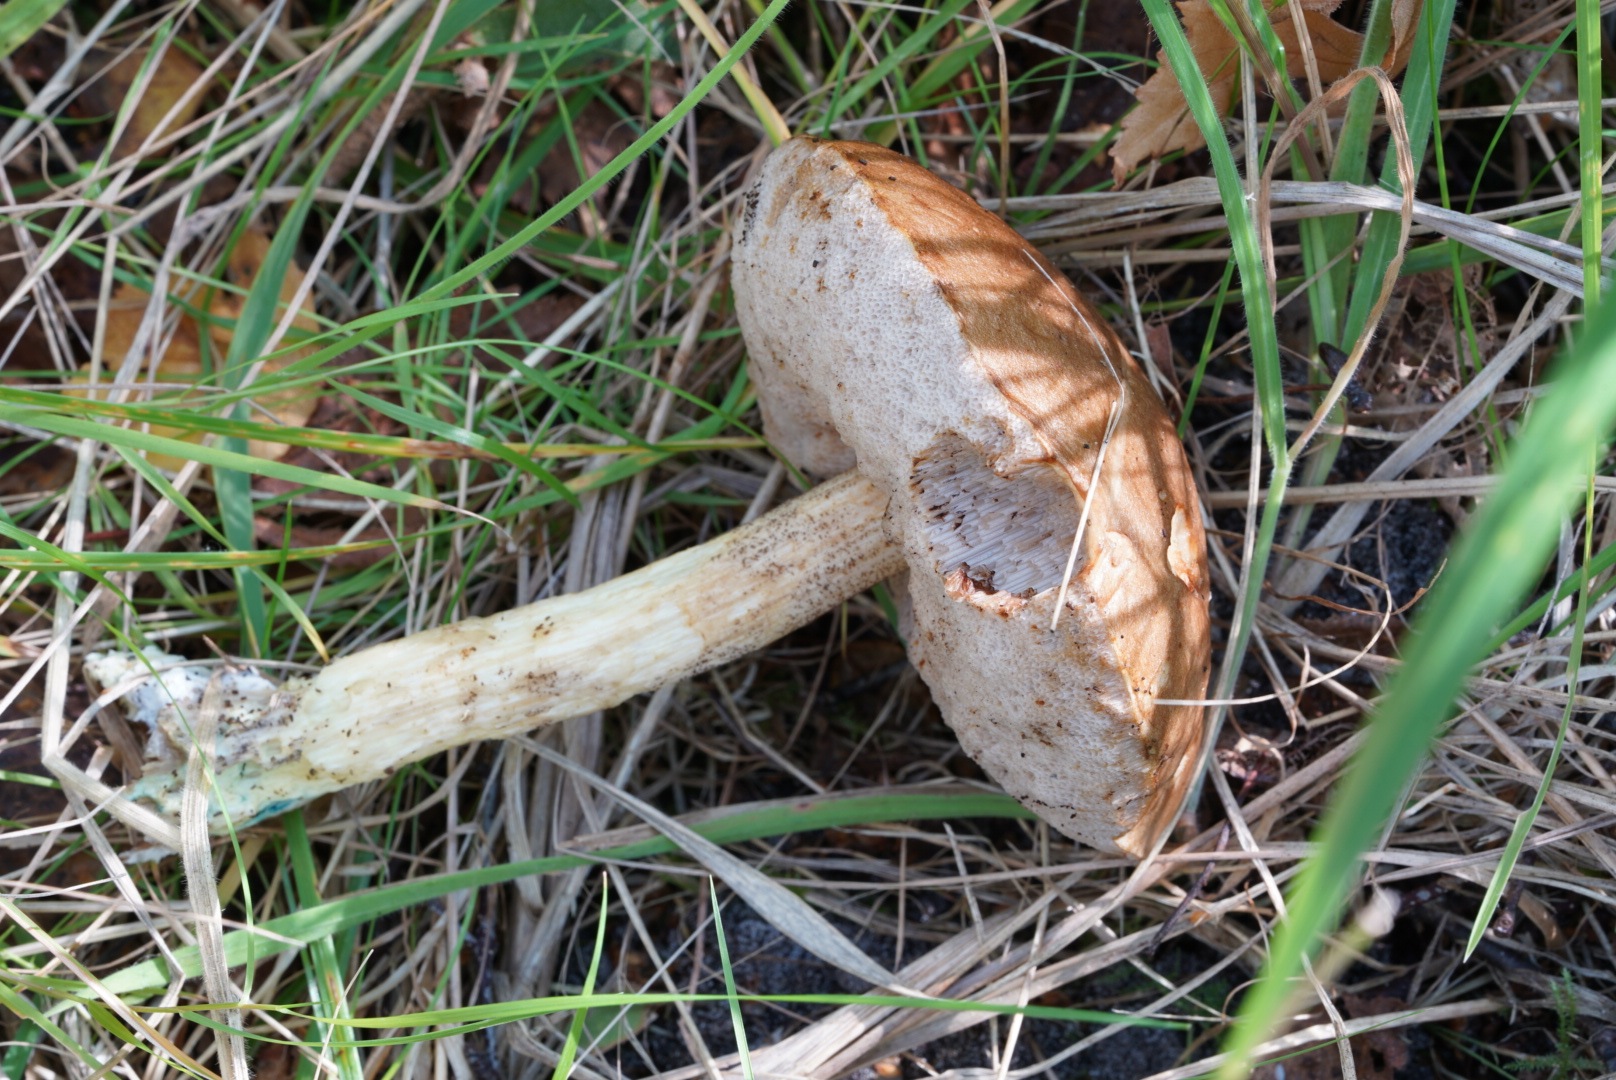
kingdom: Fungi
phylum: Basidiomycota
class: Agaricomycetes
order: Boletales
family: Boletaceae
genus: Leccinum
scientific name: Leccinum cyaneobasileucum
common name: almindelig skælrørhat
